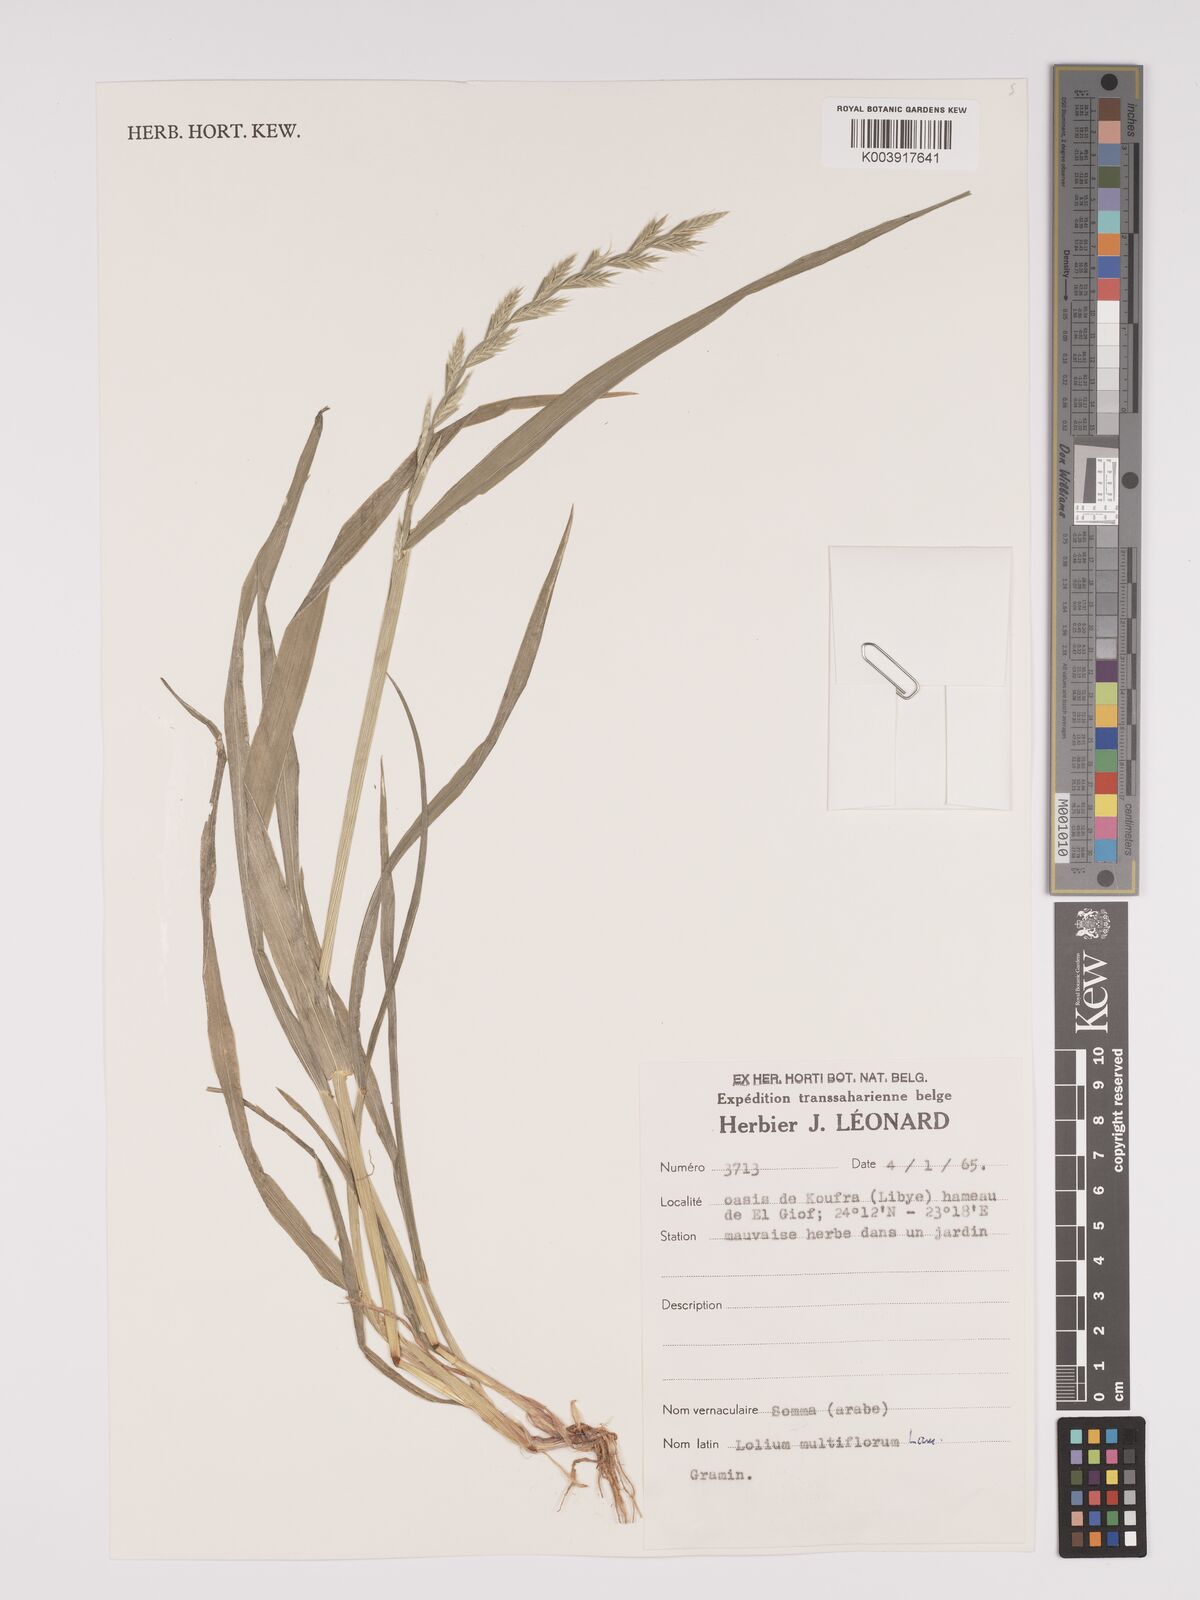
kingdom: Plantae
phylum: Tracheophyta
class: Liliopsida
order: Poales
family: Poaceae
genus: Lolium
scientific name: Lolium multiflorum
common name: Annual ryegrass
